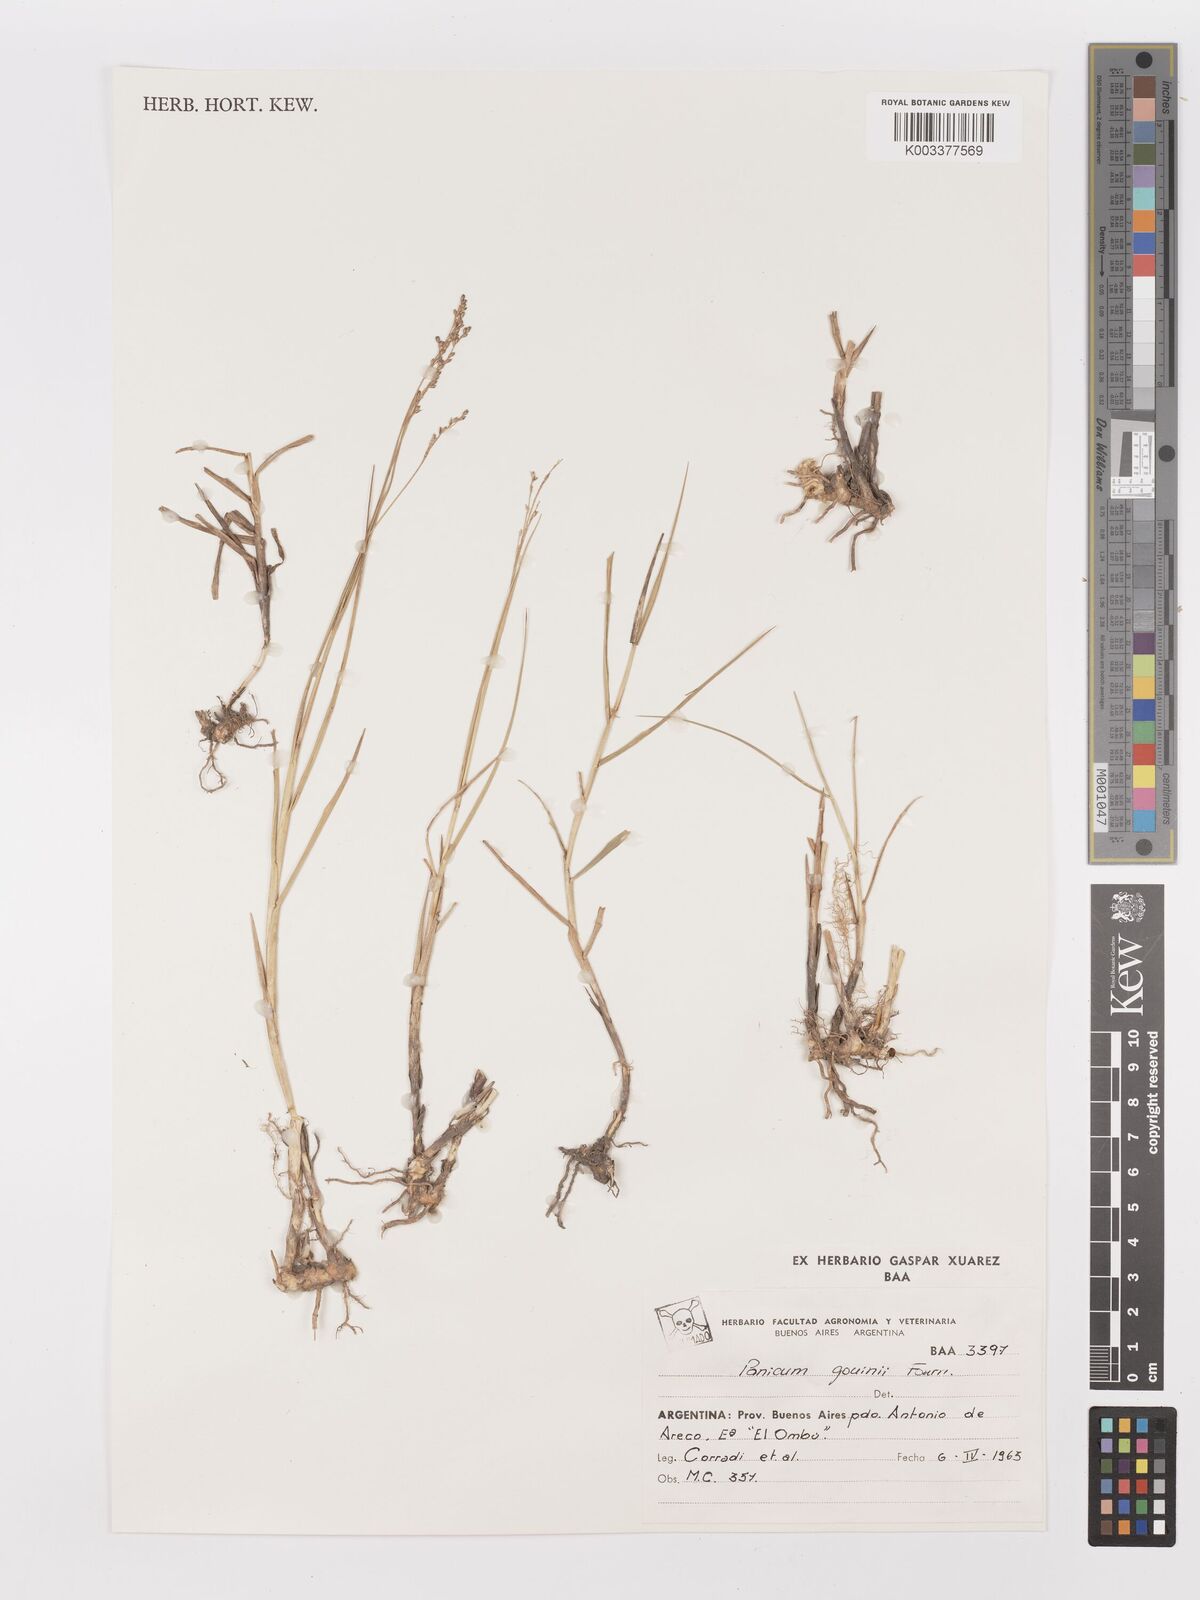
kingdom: Plantae
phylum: Tracheophyta
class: Liliopsida
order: Poales
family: Poaceae
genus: Urochloa
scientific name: Urochloa rudis
